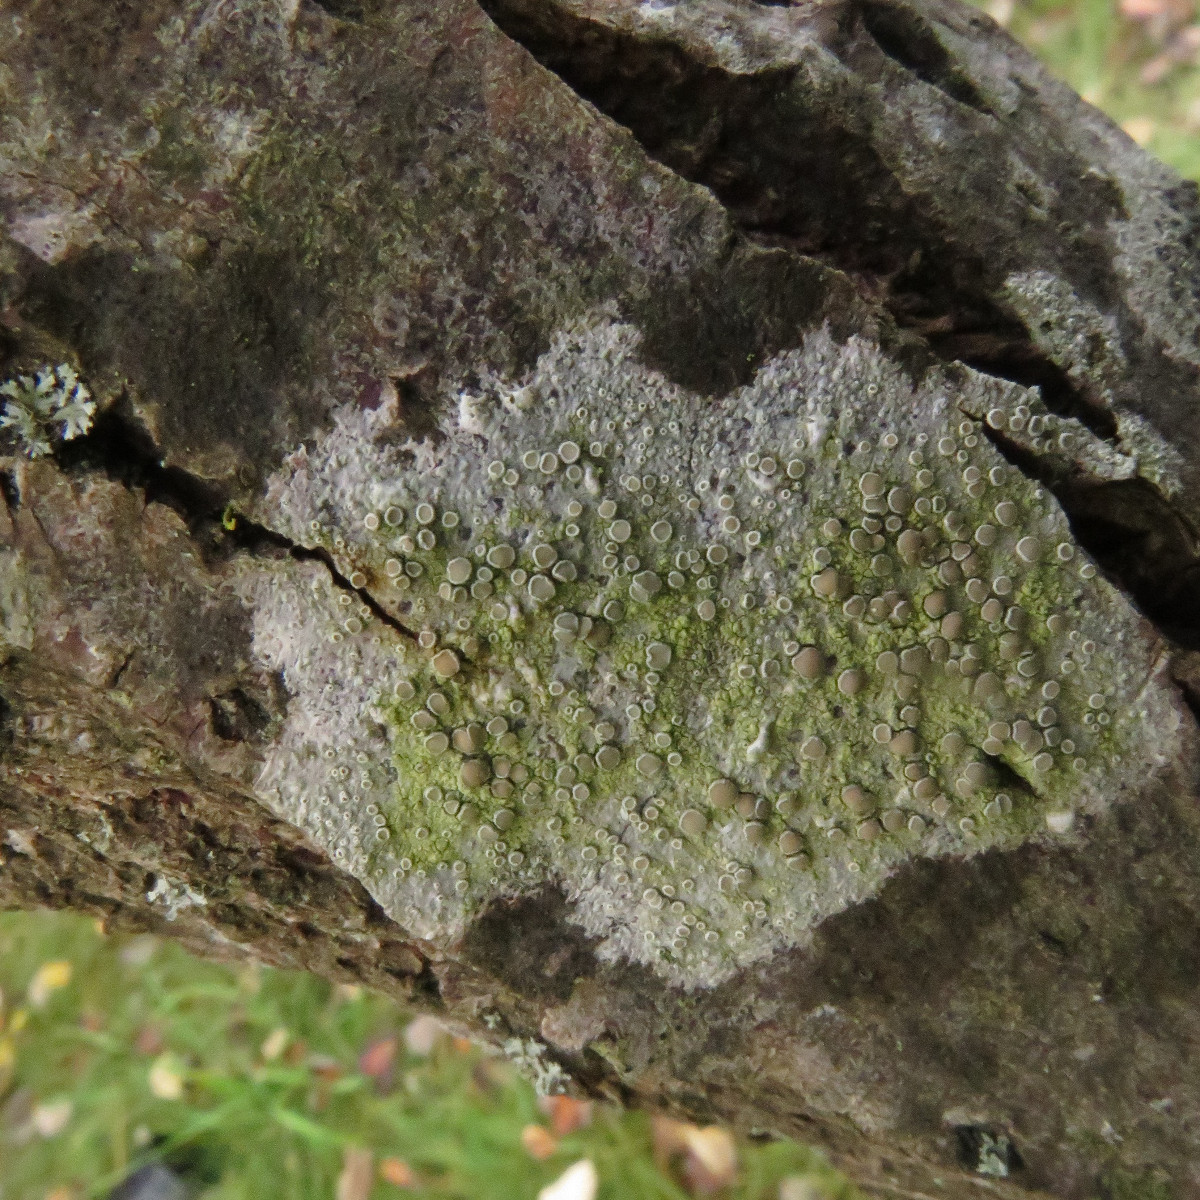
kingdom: Fungi
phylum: Ascomycota
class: Lecanoromycetes
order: Lecanorales
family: Lecanoraceae
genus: Lecanora
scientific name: Lecanora chlarotera
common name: brun kantskivelav
